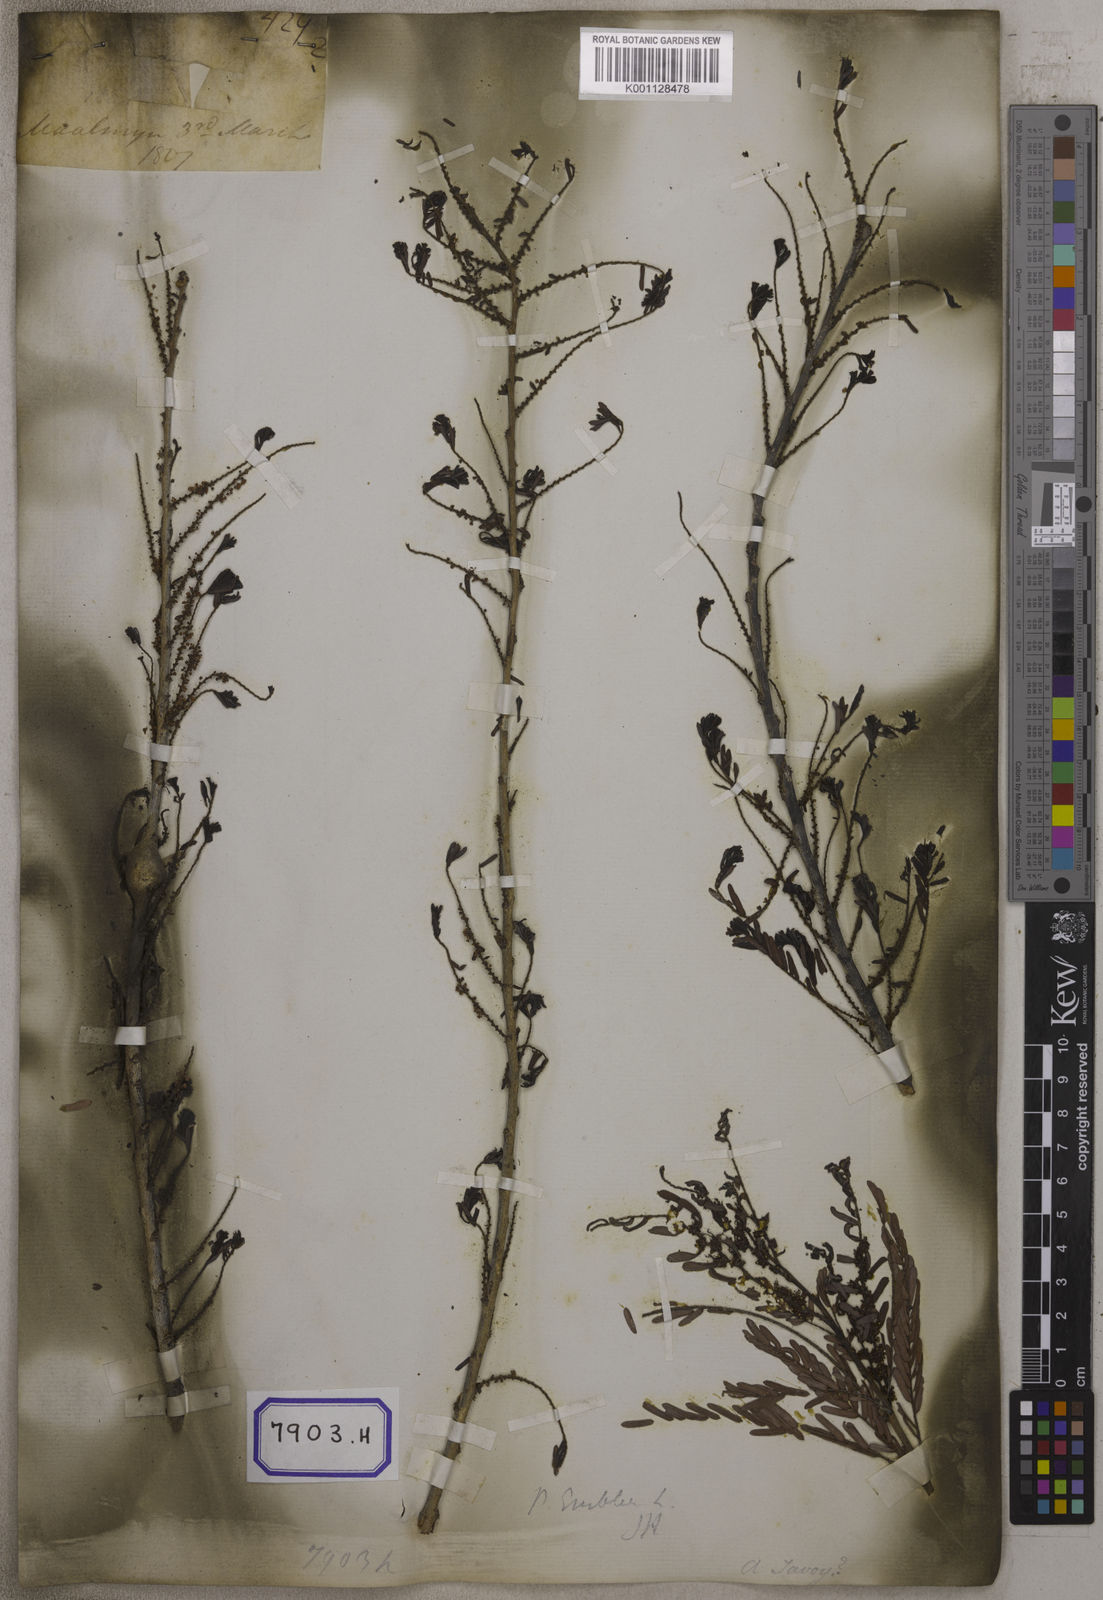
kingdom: Plantae
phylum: Tracheophyta
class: Magnoliopsida
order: Malpighiales
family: Euphorbiaceae
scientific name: Euphorbiaceae
